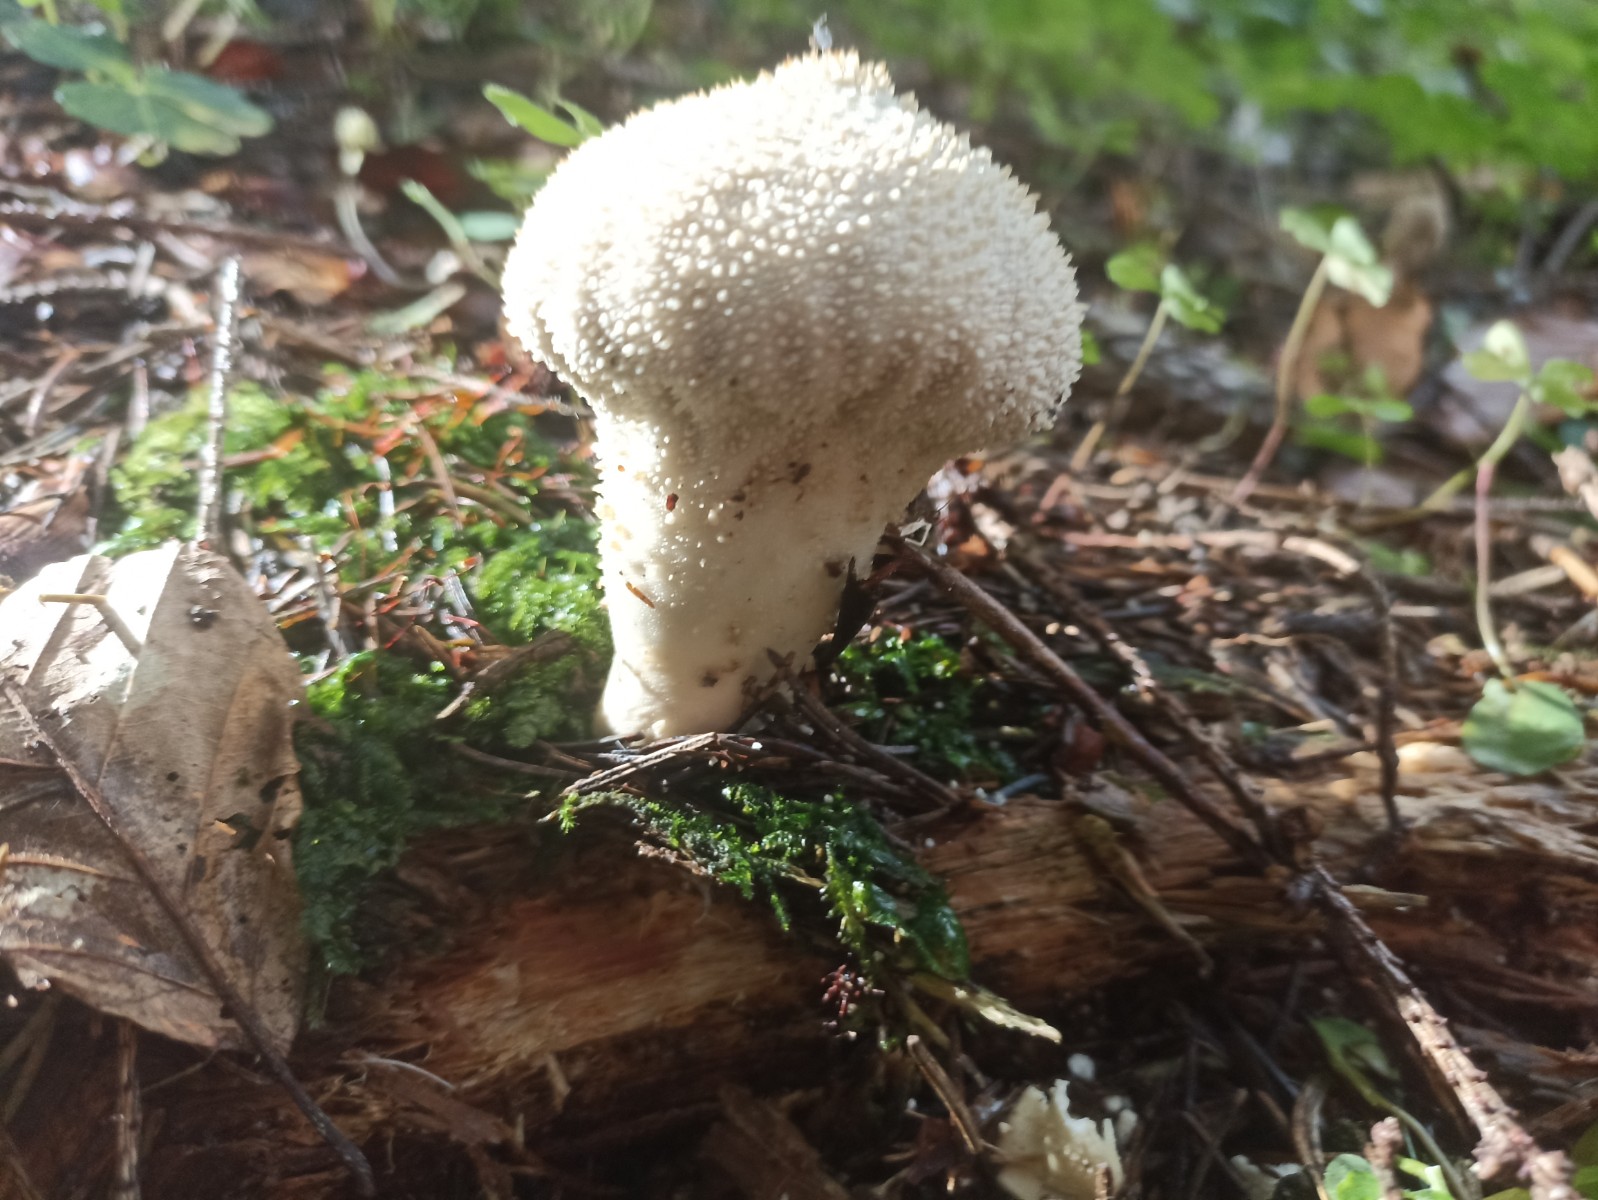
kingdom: Fungi
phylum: Basidiomycota
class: Agaricomycetes
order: Agaricales
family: Lycoperdaceae
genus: Lycoperdon
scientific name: Lycoperdon perlatum
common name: krystal-støvbold
